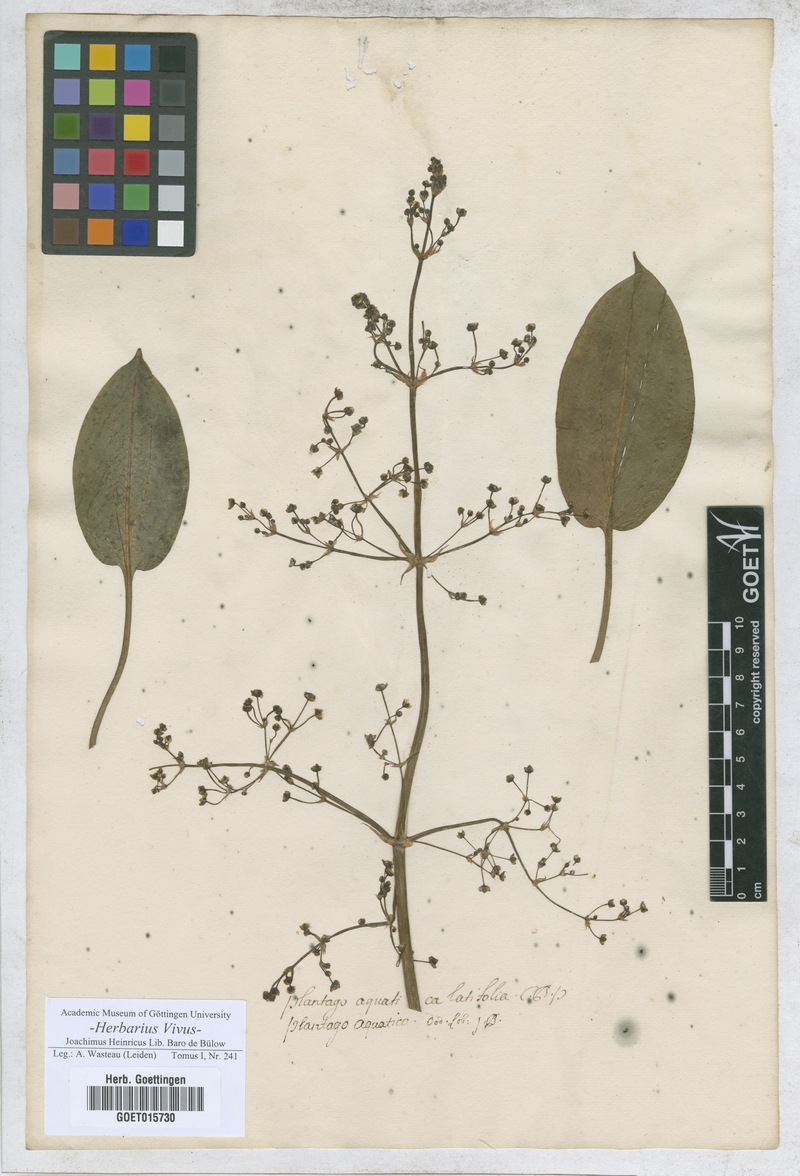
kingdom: Plantae
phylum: Tracheophyta
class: Liliopsida
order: Alismatales
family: Alismataceae
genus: Alisma
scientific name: Alisma plantago-aquatica
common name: Water-plantain
